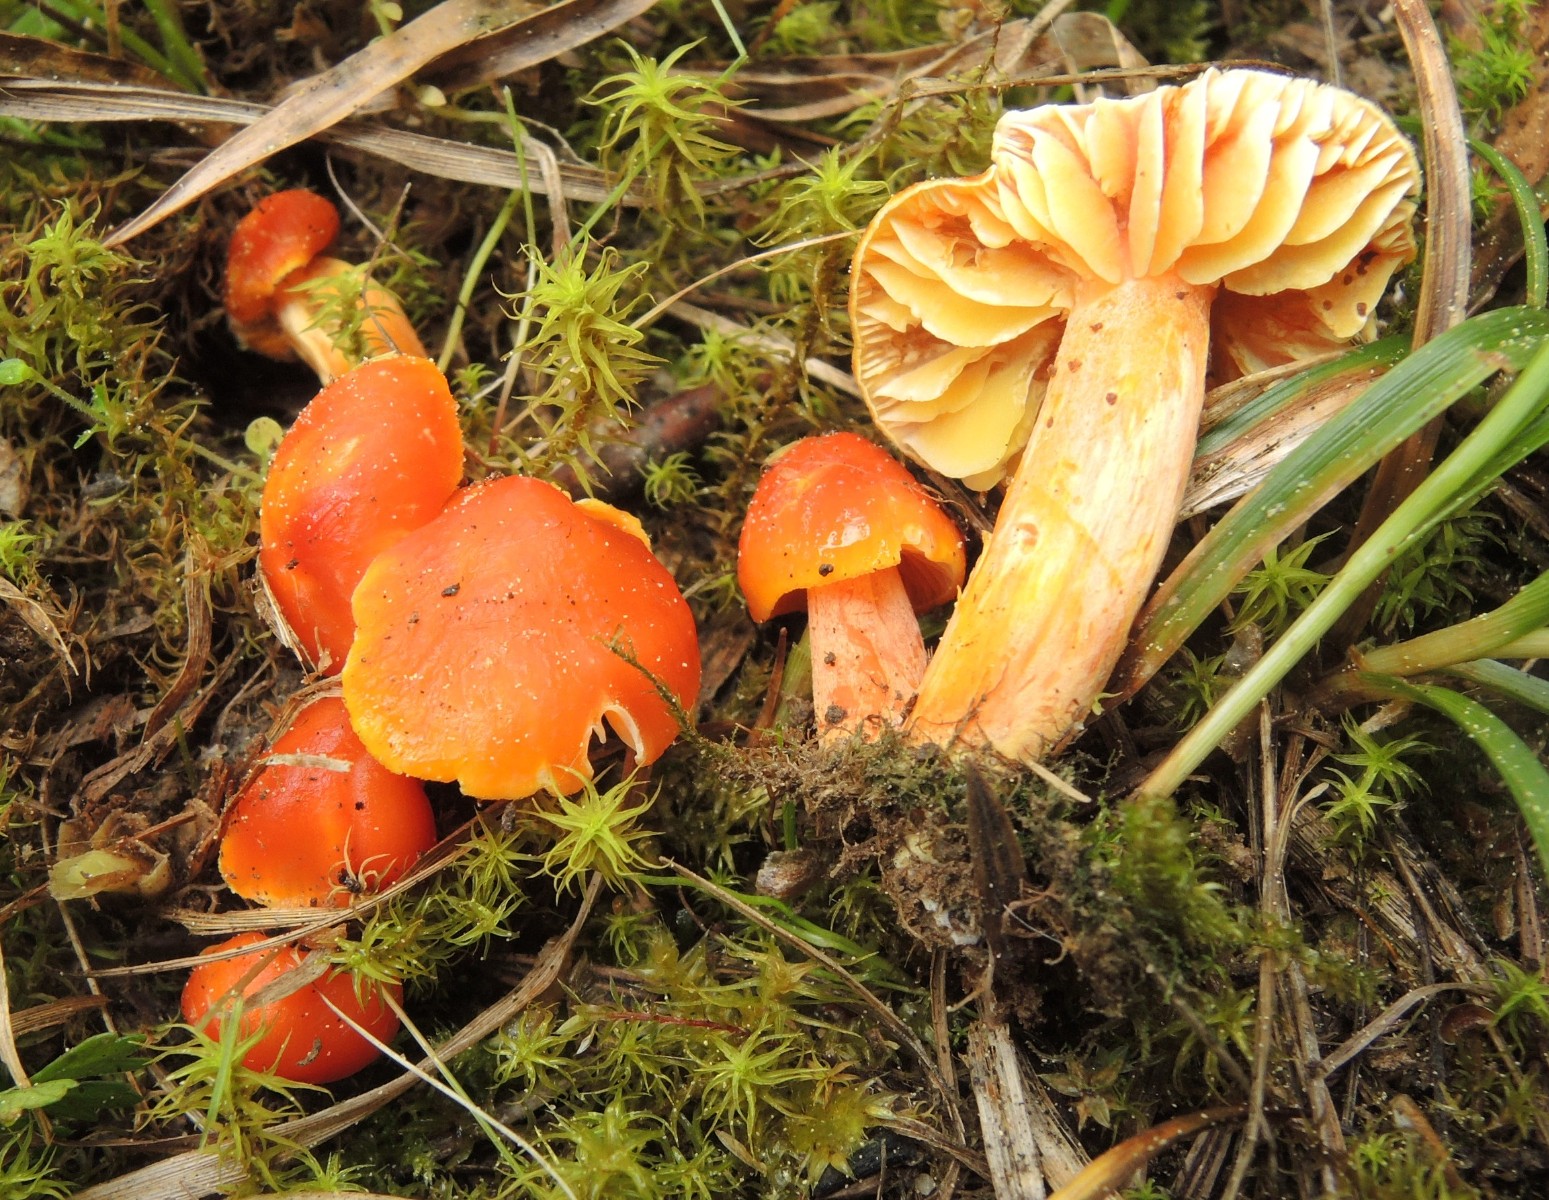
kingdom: Fungi
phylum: Basidiomycota
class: Agaricomycetes
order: Agaricales
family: Hygrophoraceae
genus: Hygrocybe
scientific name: Hygrocybe chlorophana
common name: gul vokshat
